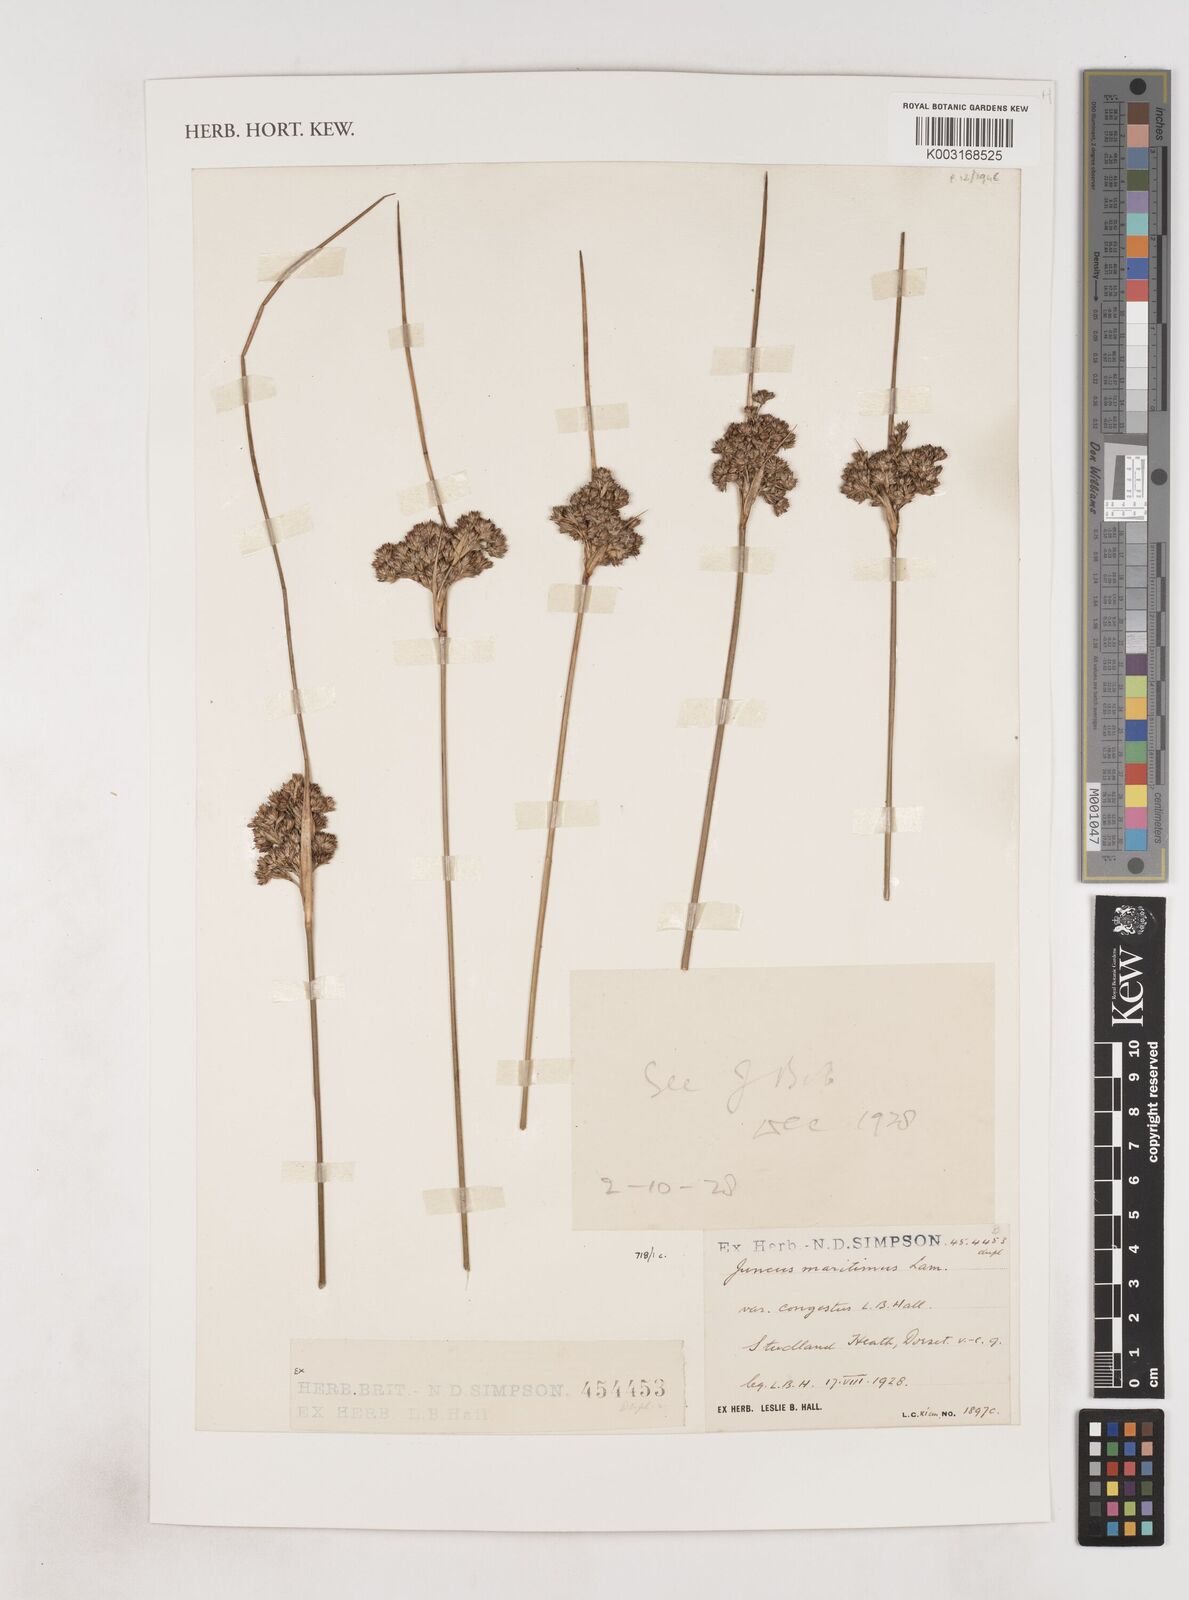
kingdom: Plantae
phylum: Tracheophyta
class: Liliopsida
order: Poales
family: Juncaceae
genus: Juncus
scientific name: Juncus maritimus
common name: Sea rush
